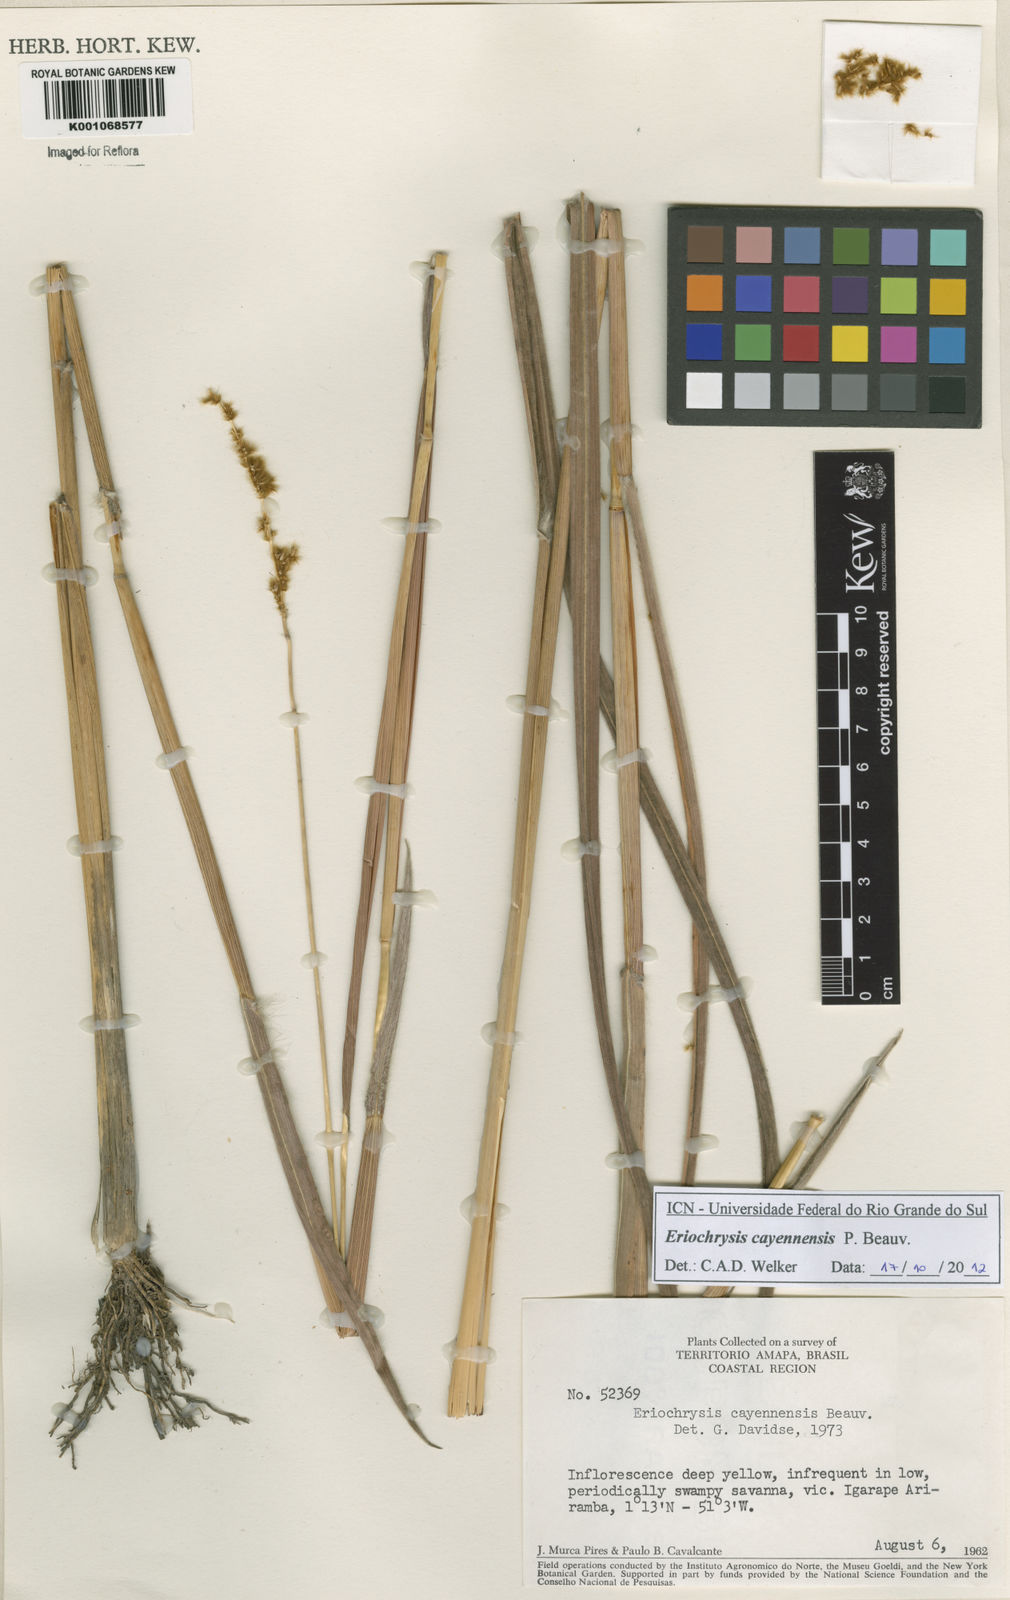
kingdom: Plantae
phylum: Tracheophyta
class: Liliopsida
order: Poales
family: Poaceae
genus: Eriochrysis
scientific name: Eriochrysis cayennensis
